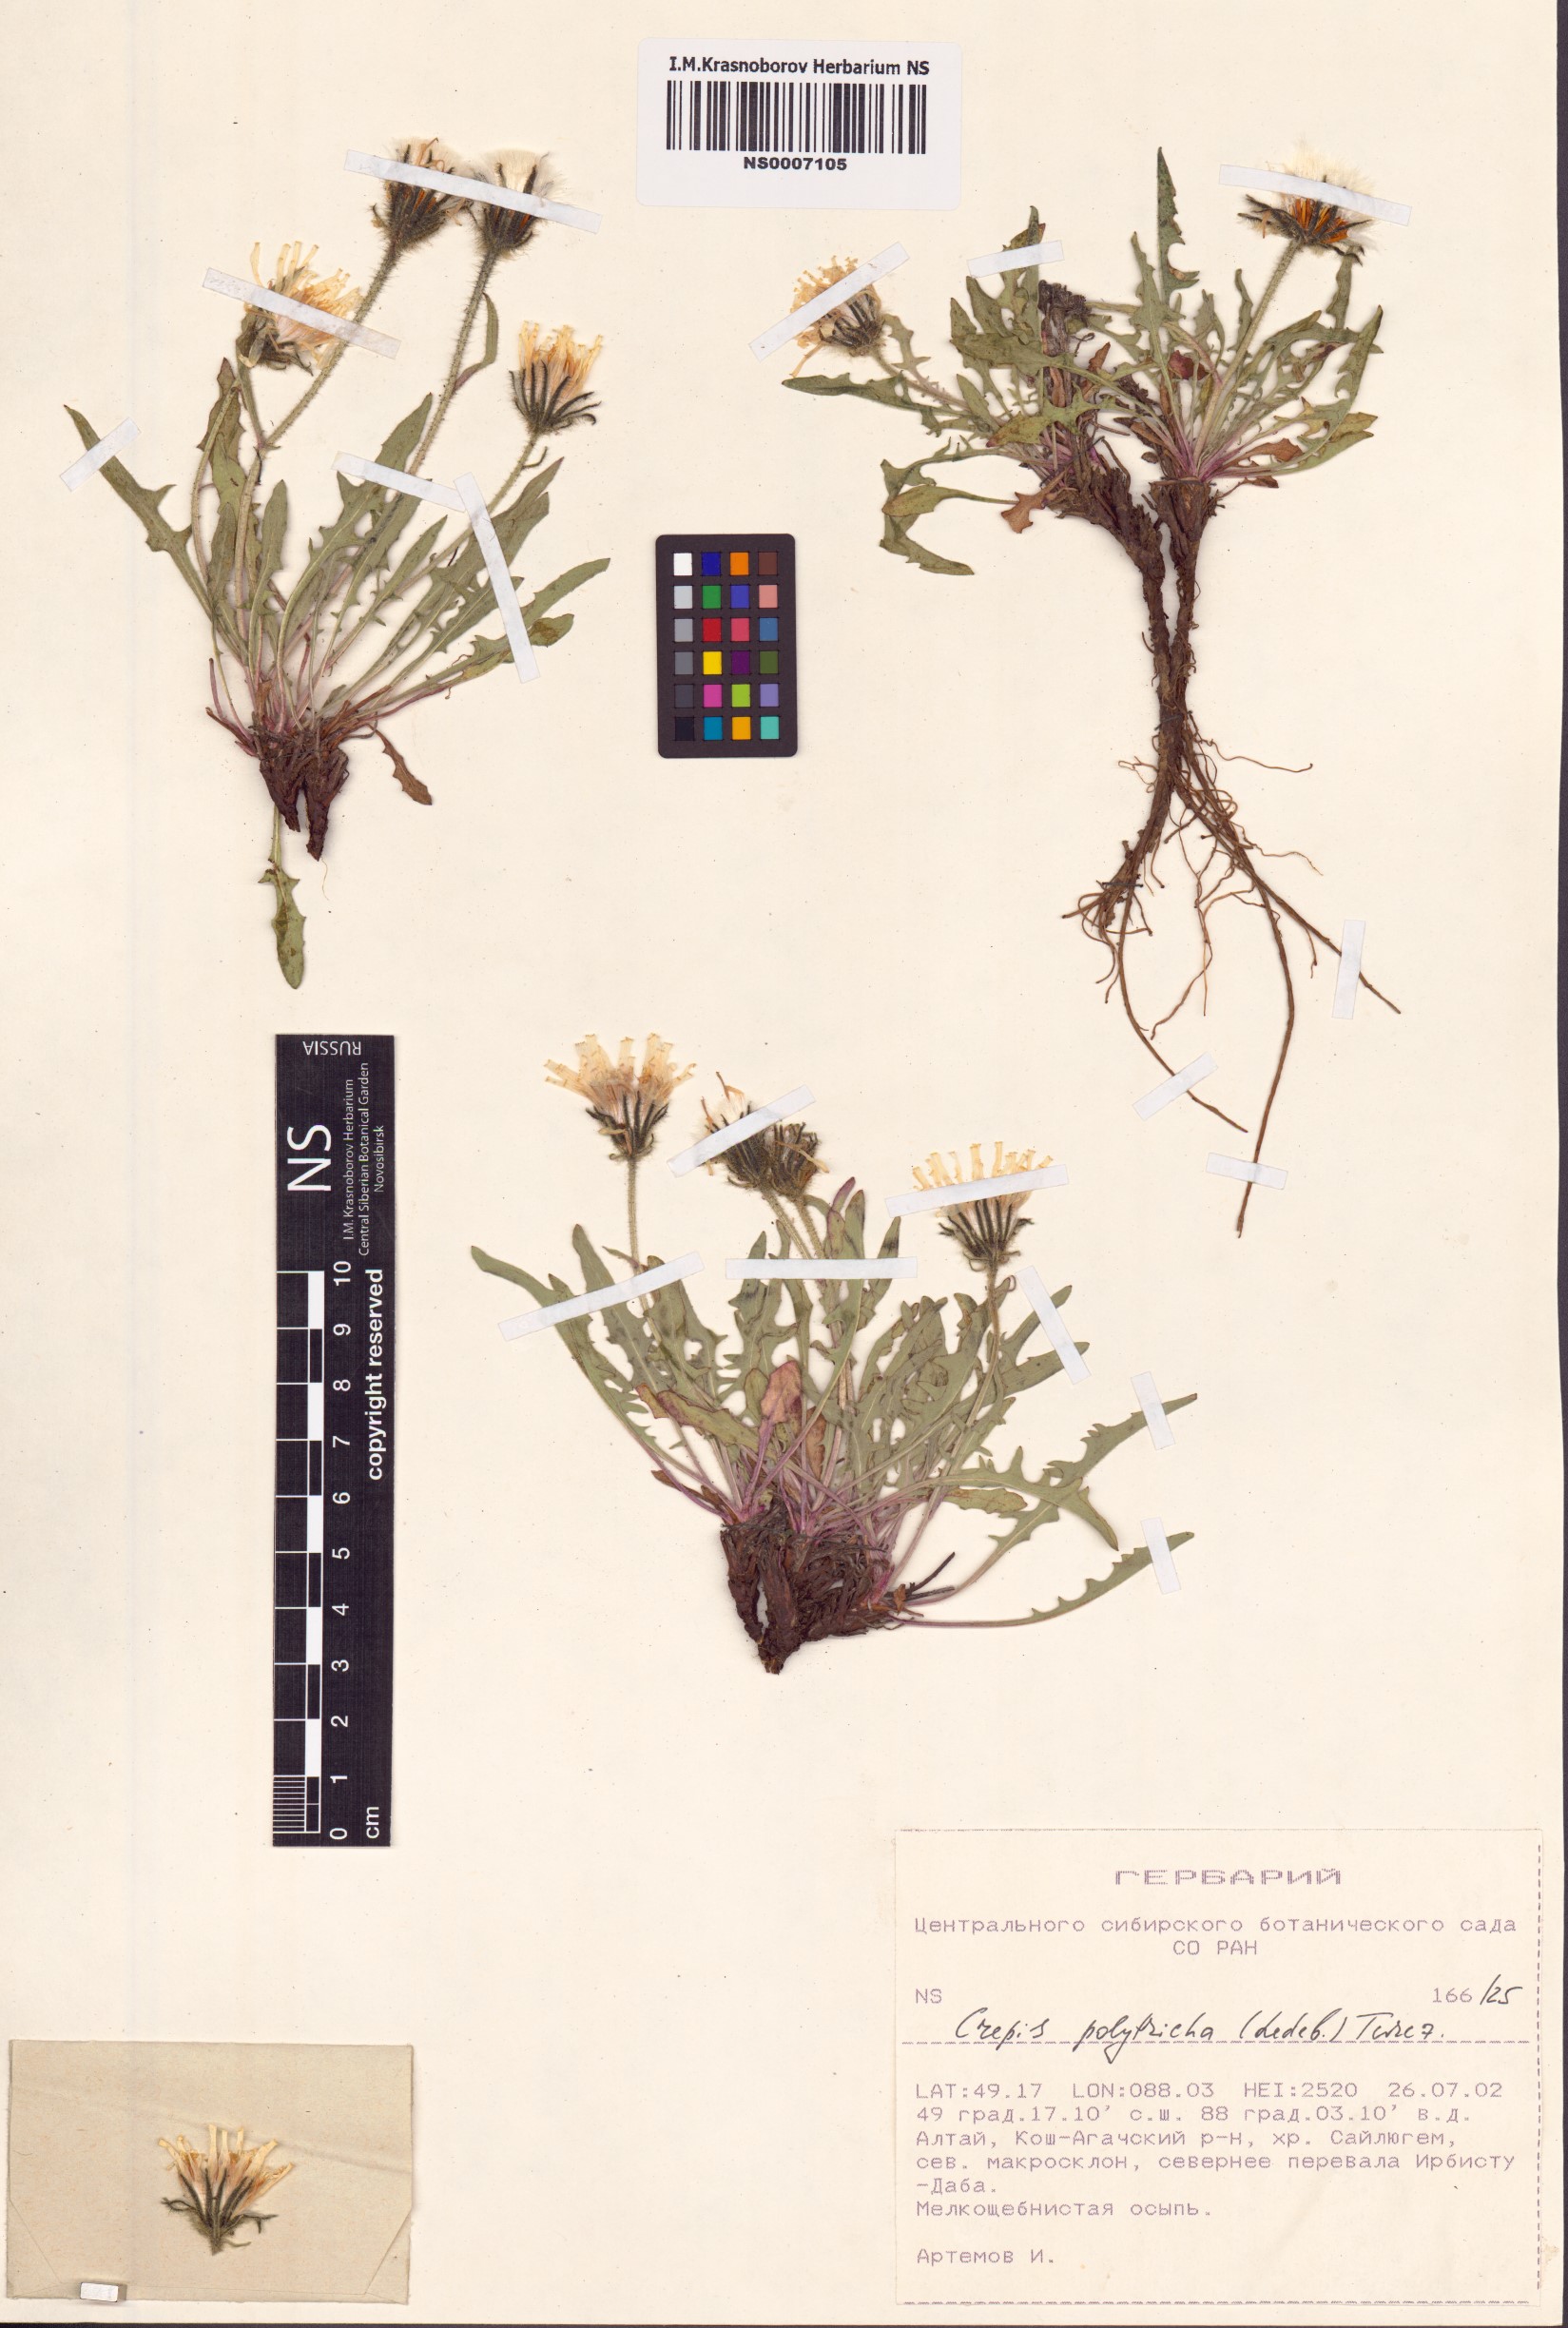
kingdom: Plantae
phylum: Tracheophyta
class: Magnoliopsida
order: Asterales
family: Asteraceae
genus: Crepis
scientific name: Crepis chrysantha
